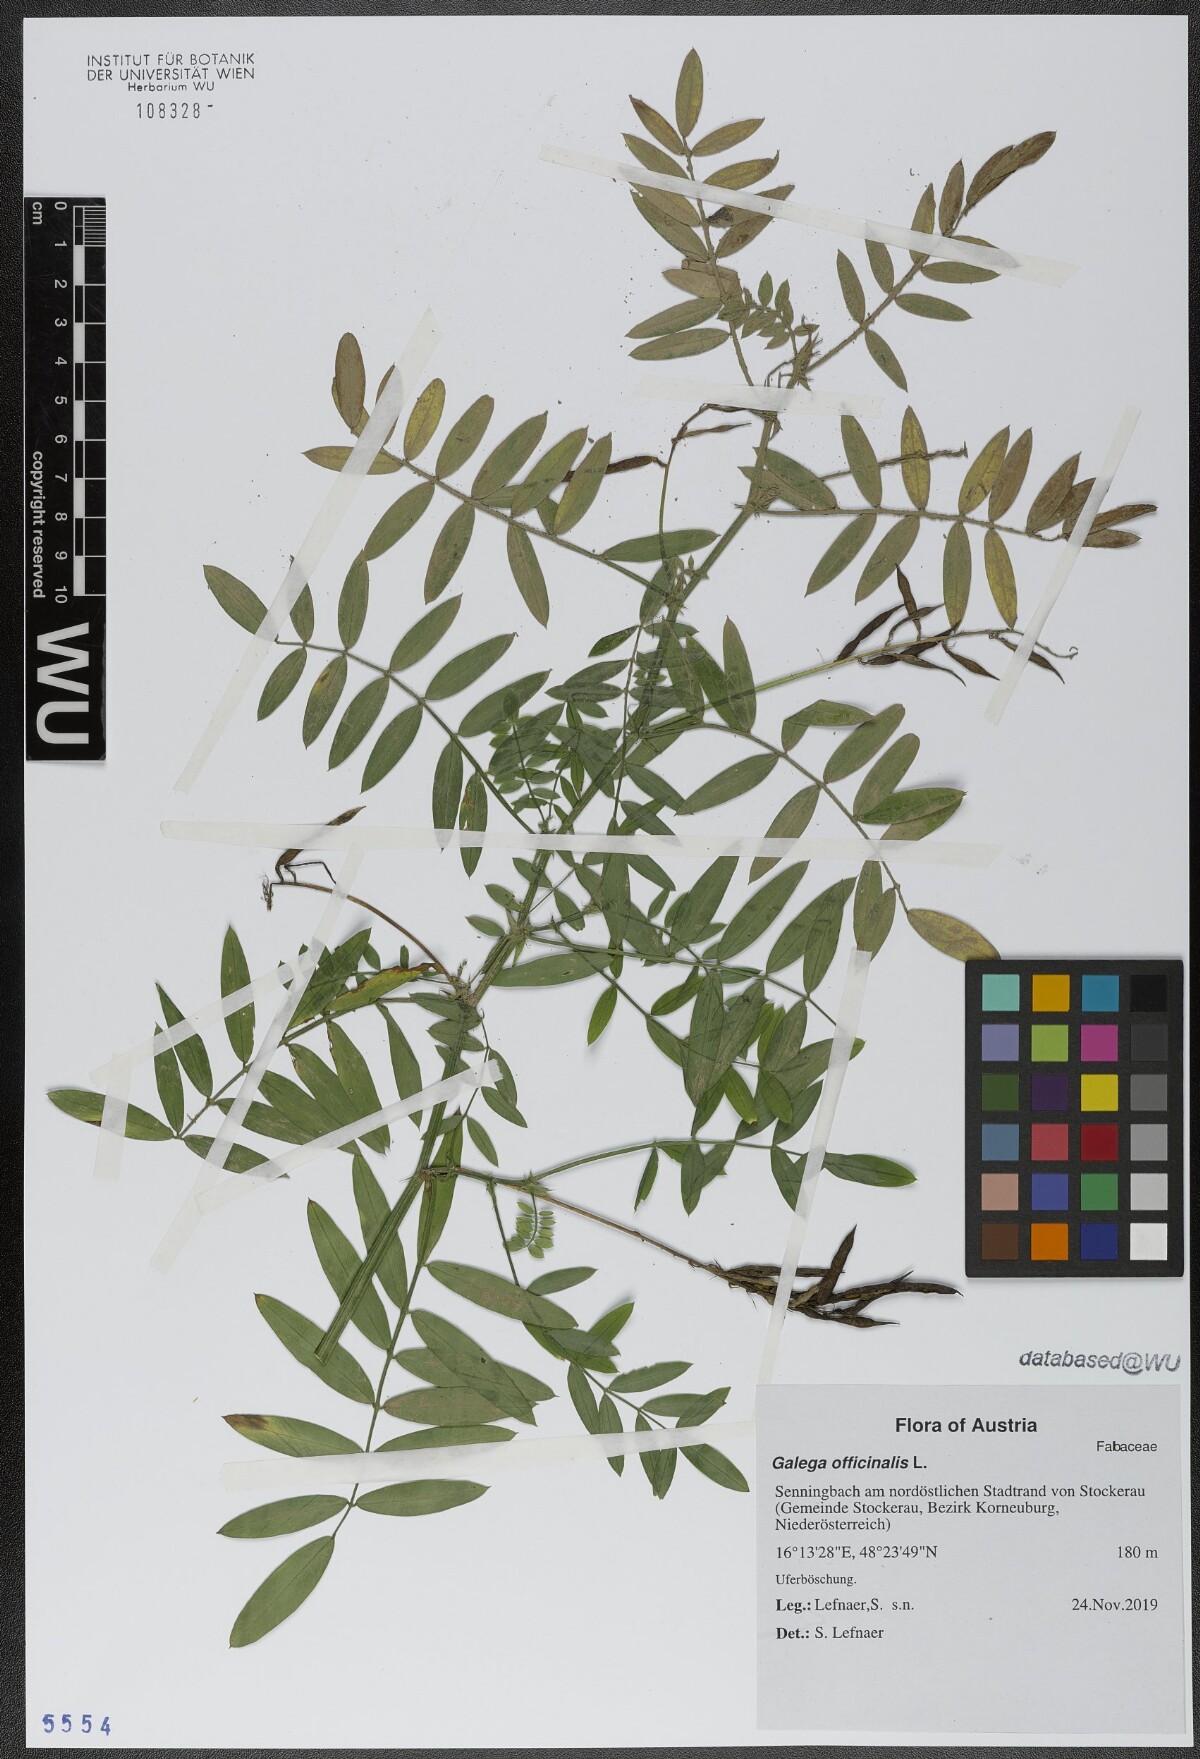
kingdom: Plantae
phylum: Tracheophyta
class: Magnoliopsida
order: Fabales
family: Fabaceae
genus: Galega
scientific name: Galega officinalis
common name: Goat's-rue
